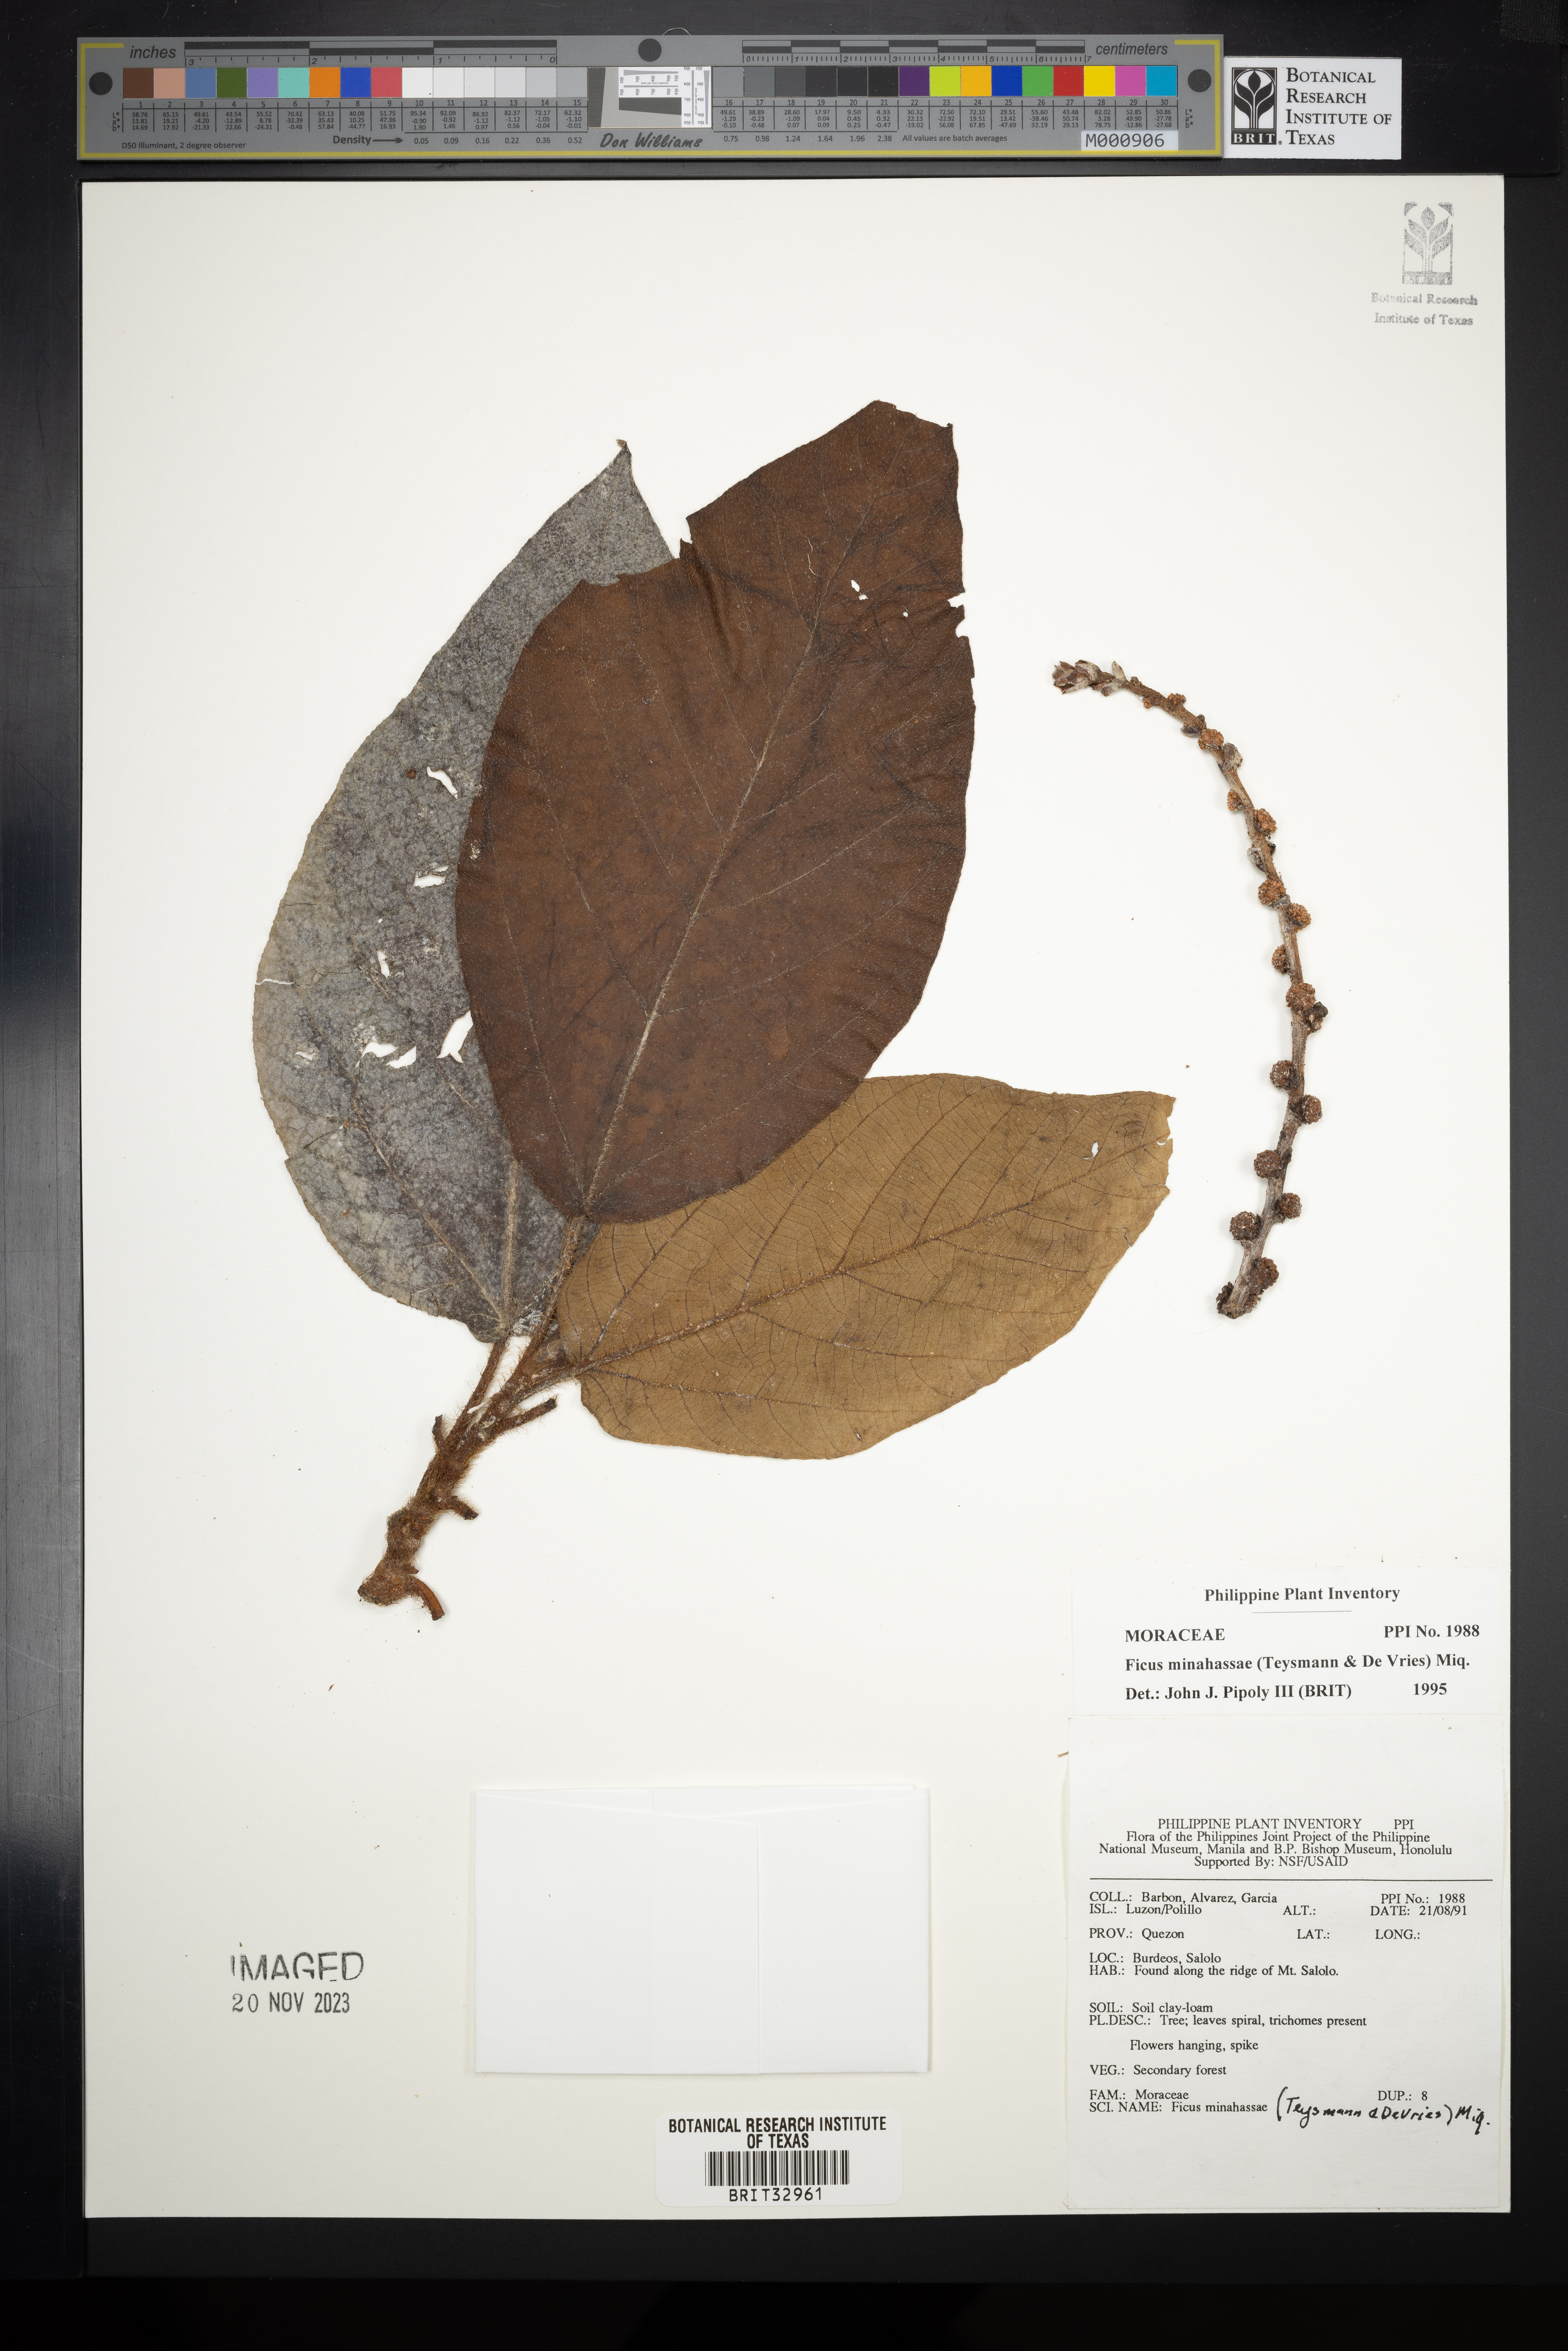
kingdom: Plantae
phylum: Tracheophyta
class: Magnoliopsida
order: Rosales
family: Moraceae
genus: Ficus
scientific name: Ficus minahassae
